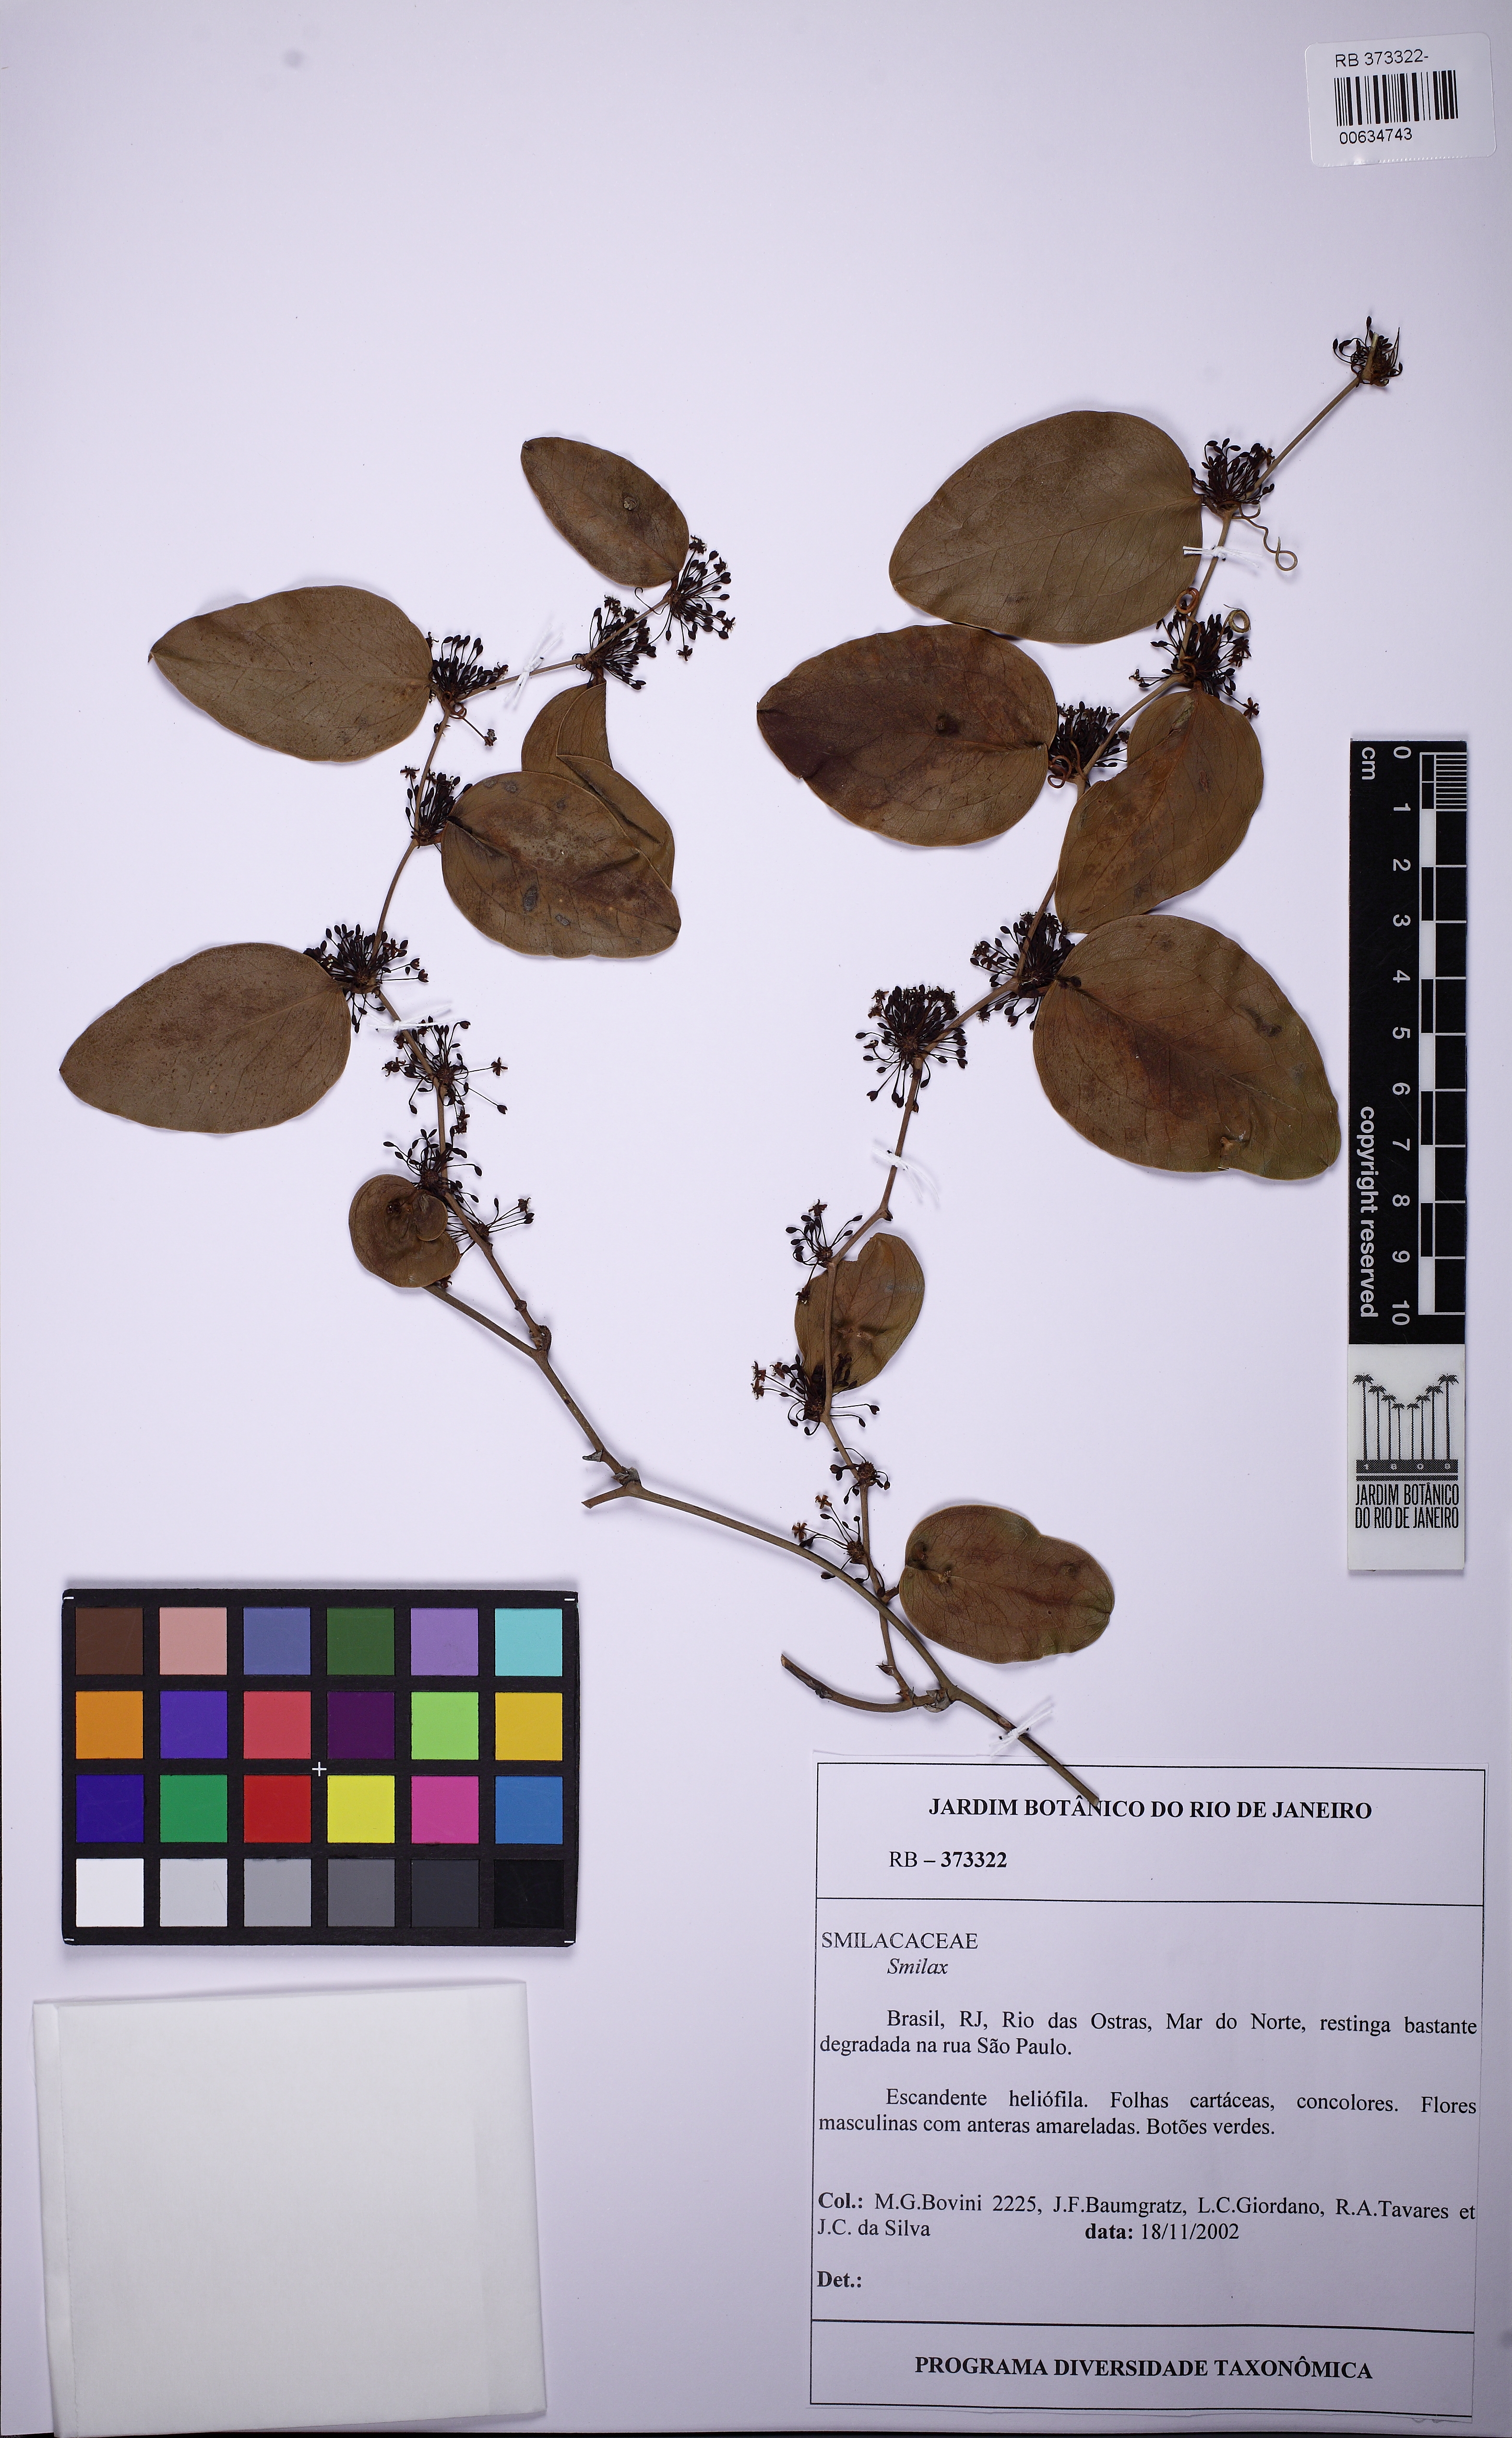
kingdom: Plantae
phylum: Tracheophyta
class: Liliopsida
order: Liliales
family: Smilacaceae
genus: Smilax
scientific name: Smilax
